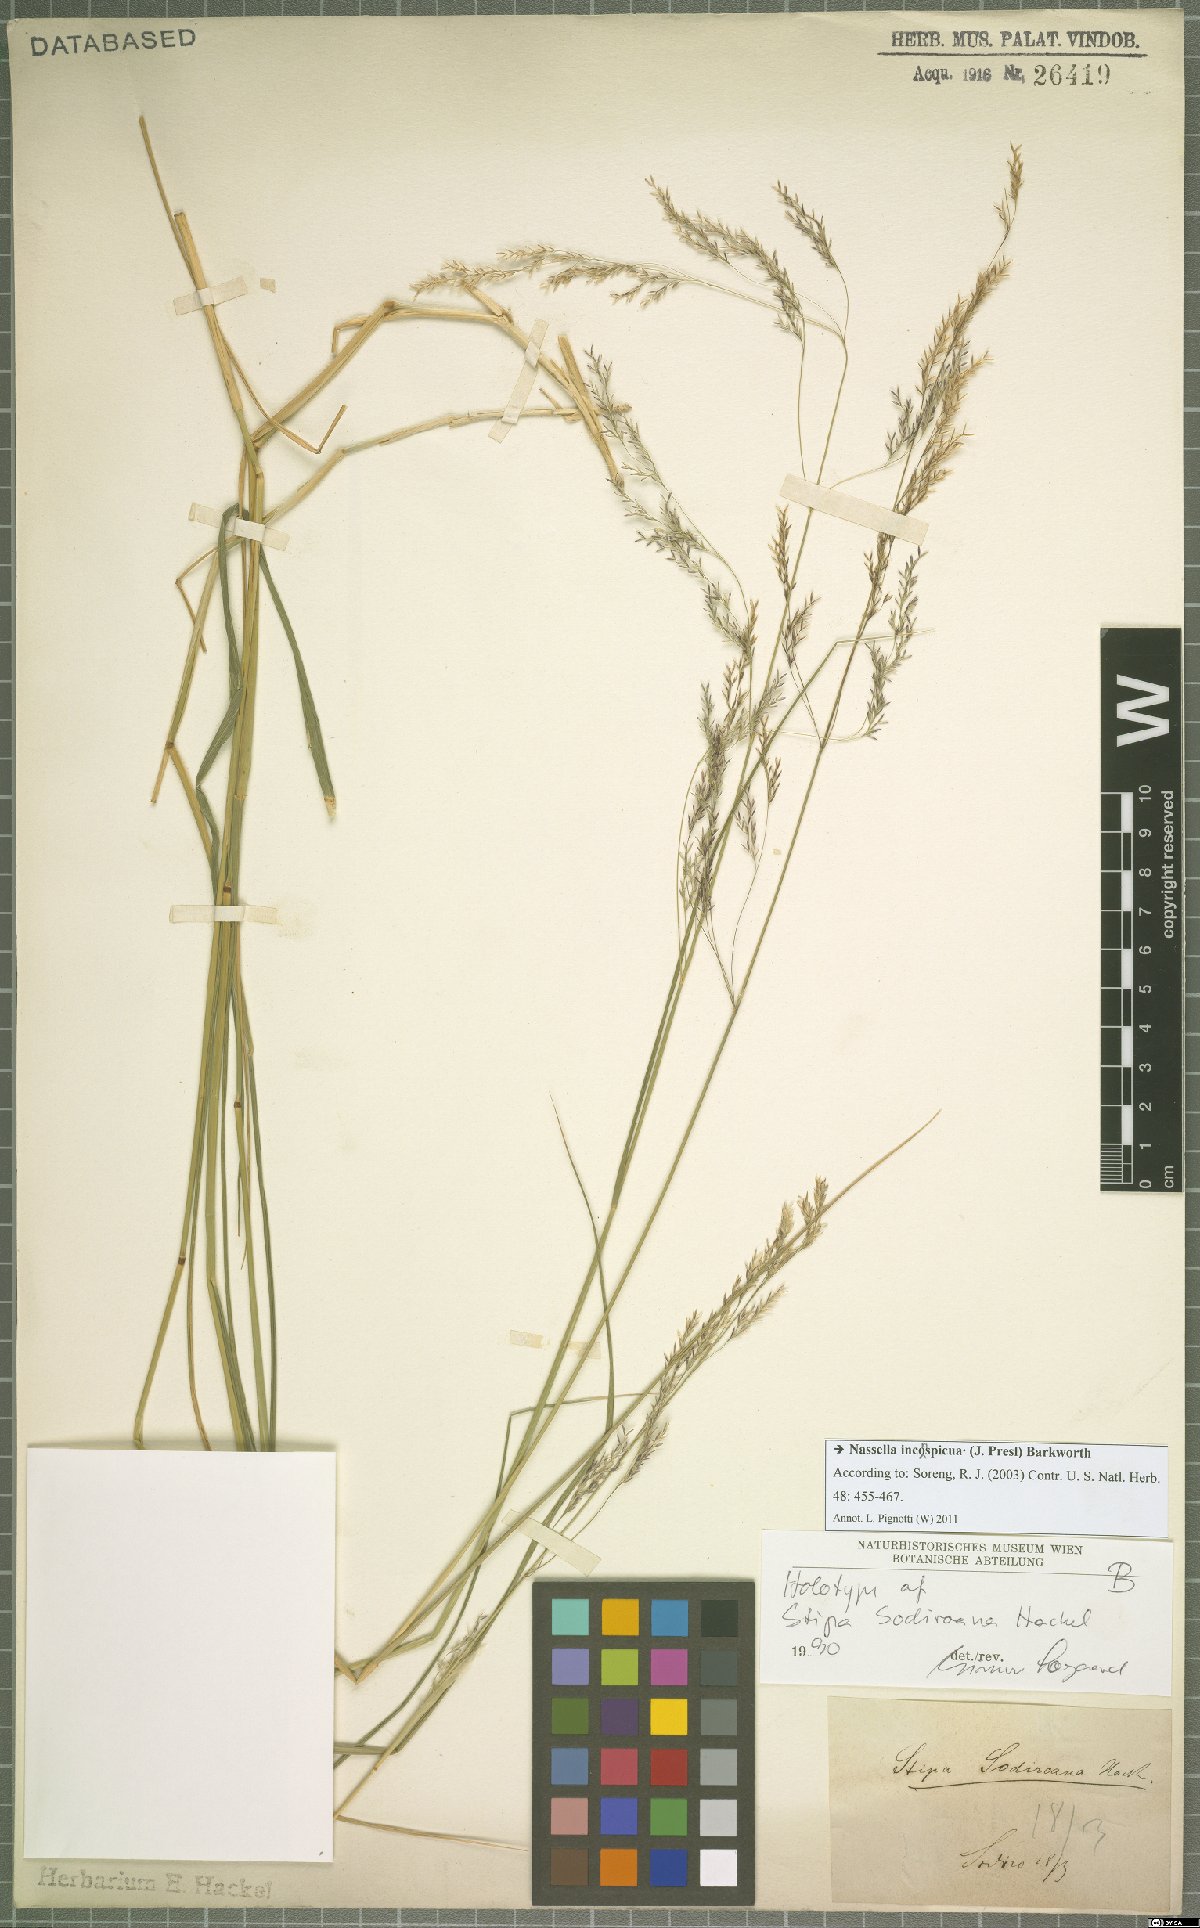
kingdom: Plantae
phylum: Tracheophyta
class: Liliopsida
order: Poales
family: Poaceae
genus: Nassella
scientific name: Nassella inconspicua
